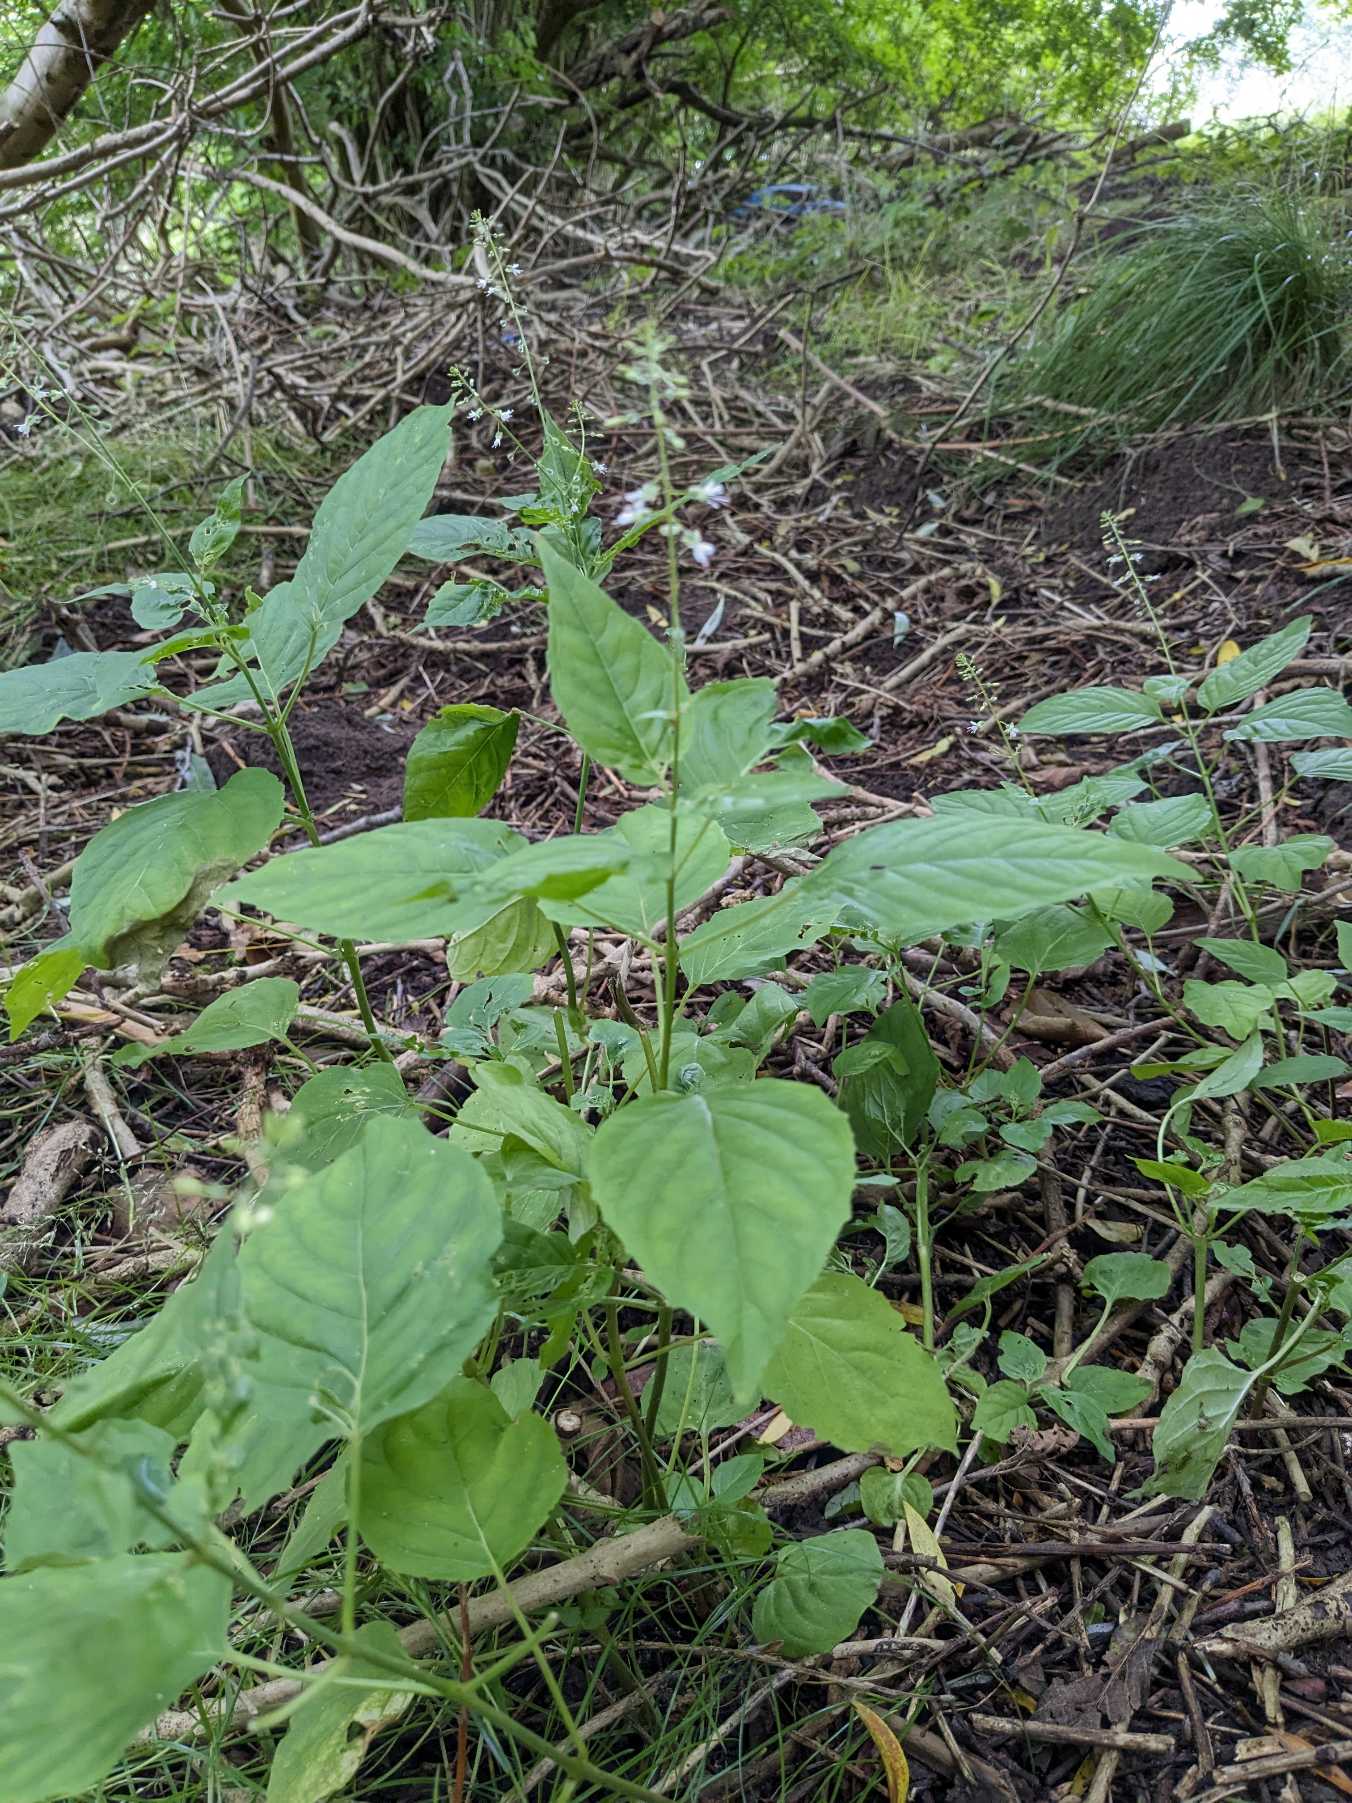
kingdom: Plantae
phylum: Tracheophyta
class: Magnoliopsida
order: Myrtales
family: Onagraceae
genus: Circaea
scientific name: Circaea lutetiana
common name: Dunet steffensurt
